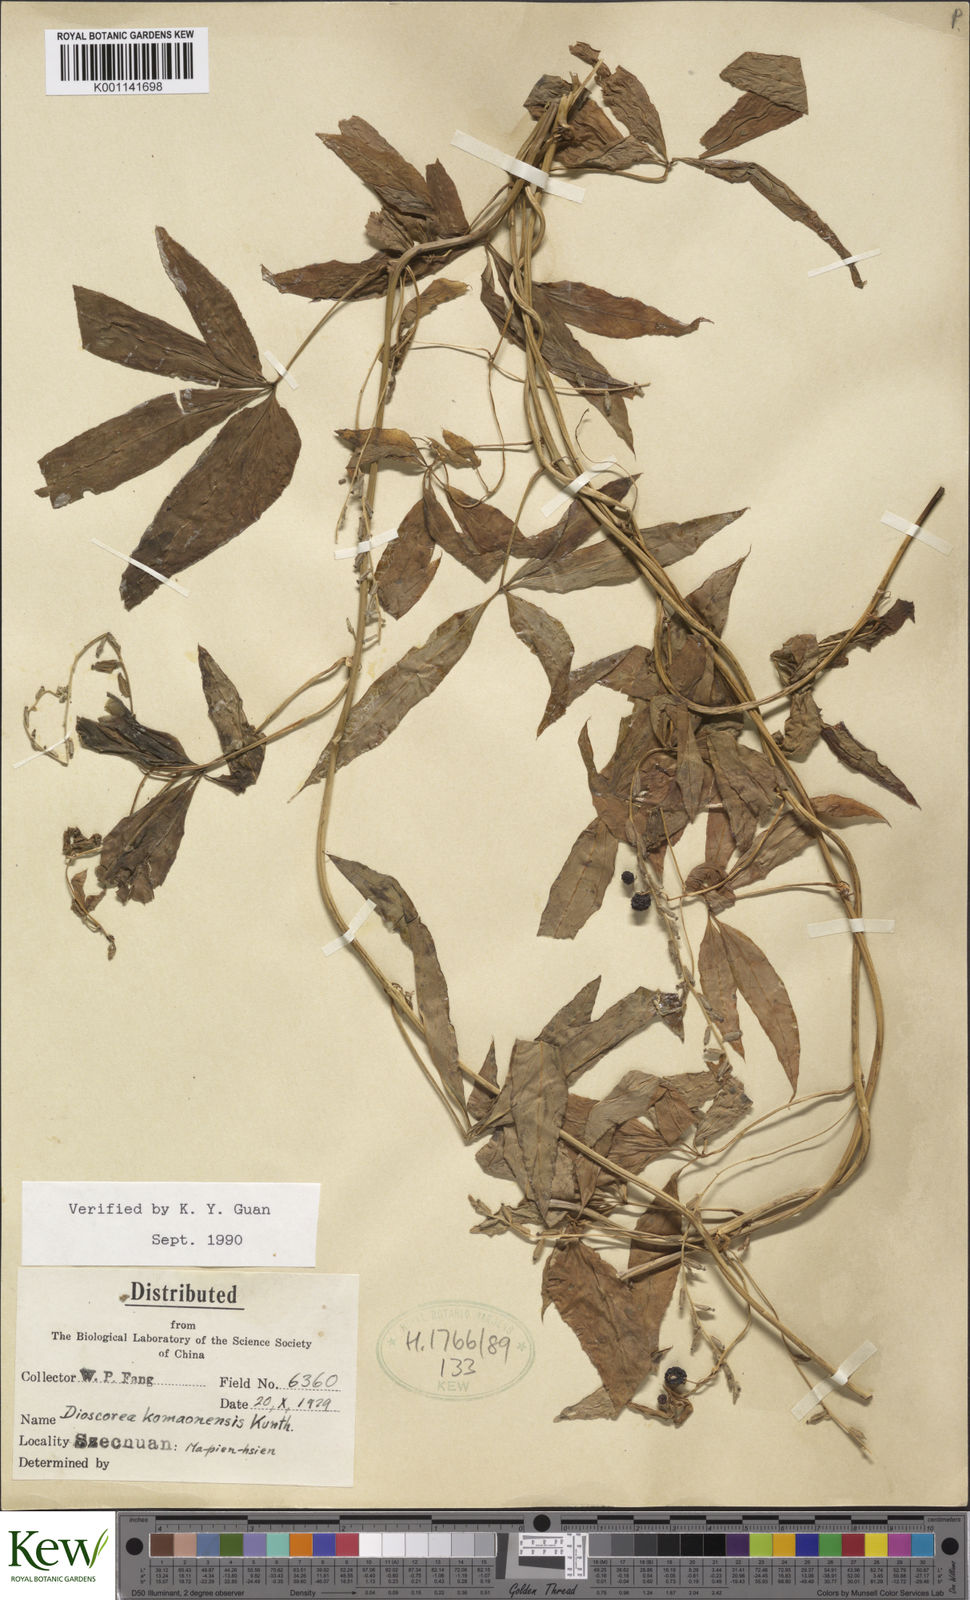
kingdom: Plantae
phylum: Tracheophyta
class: Liliopsida
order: Dioscoreales
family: Dioscoreaceae
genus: Dioscorea
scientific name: Dioscorea kamoonensis
